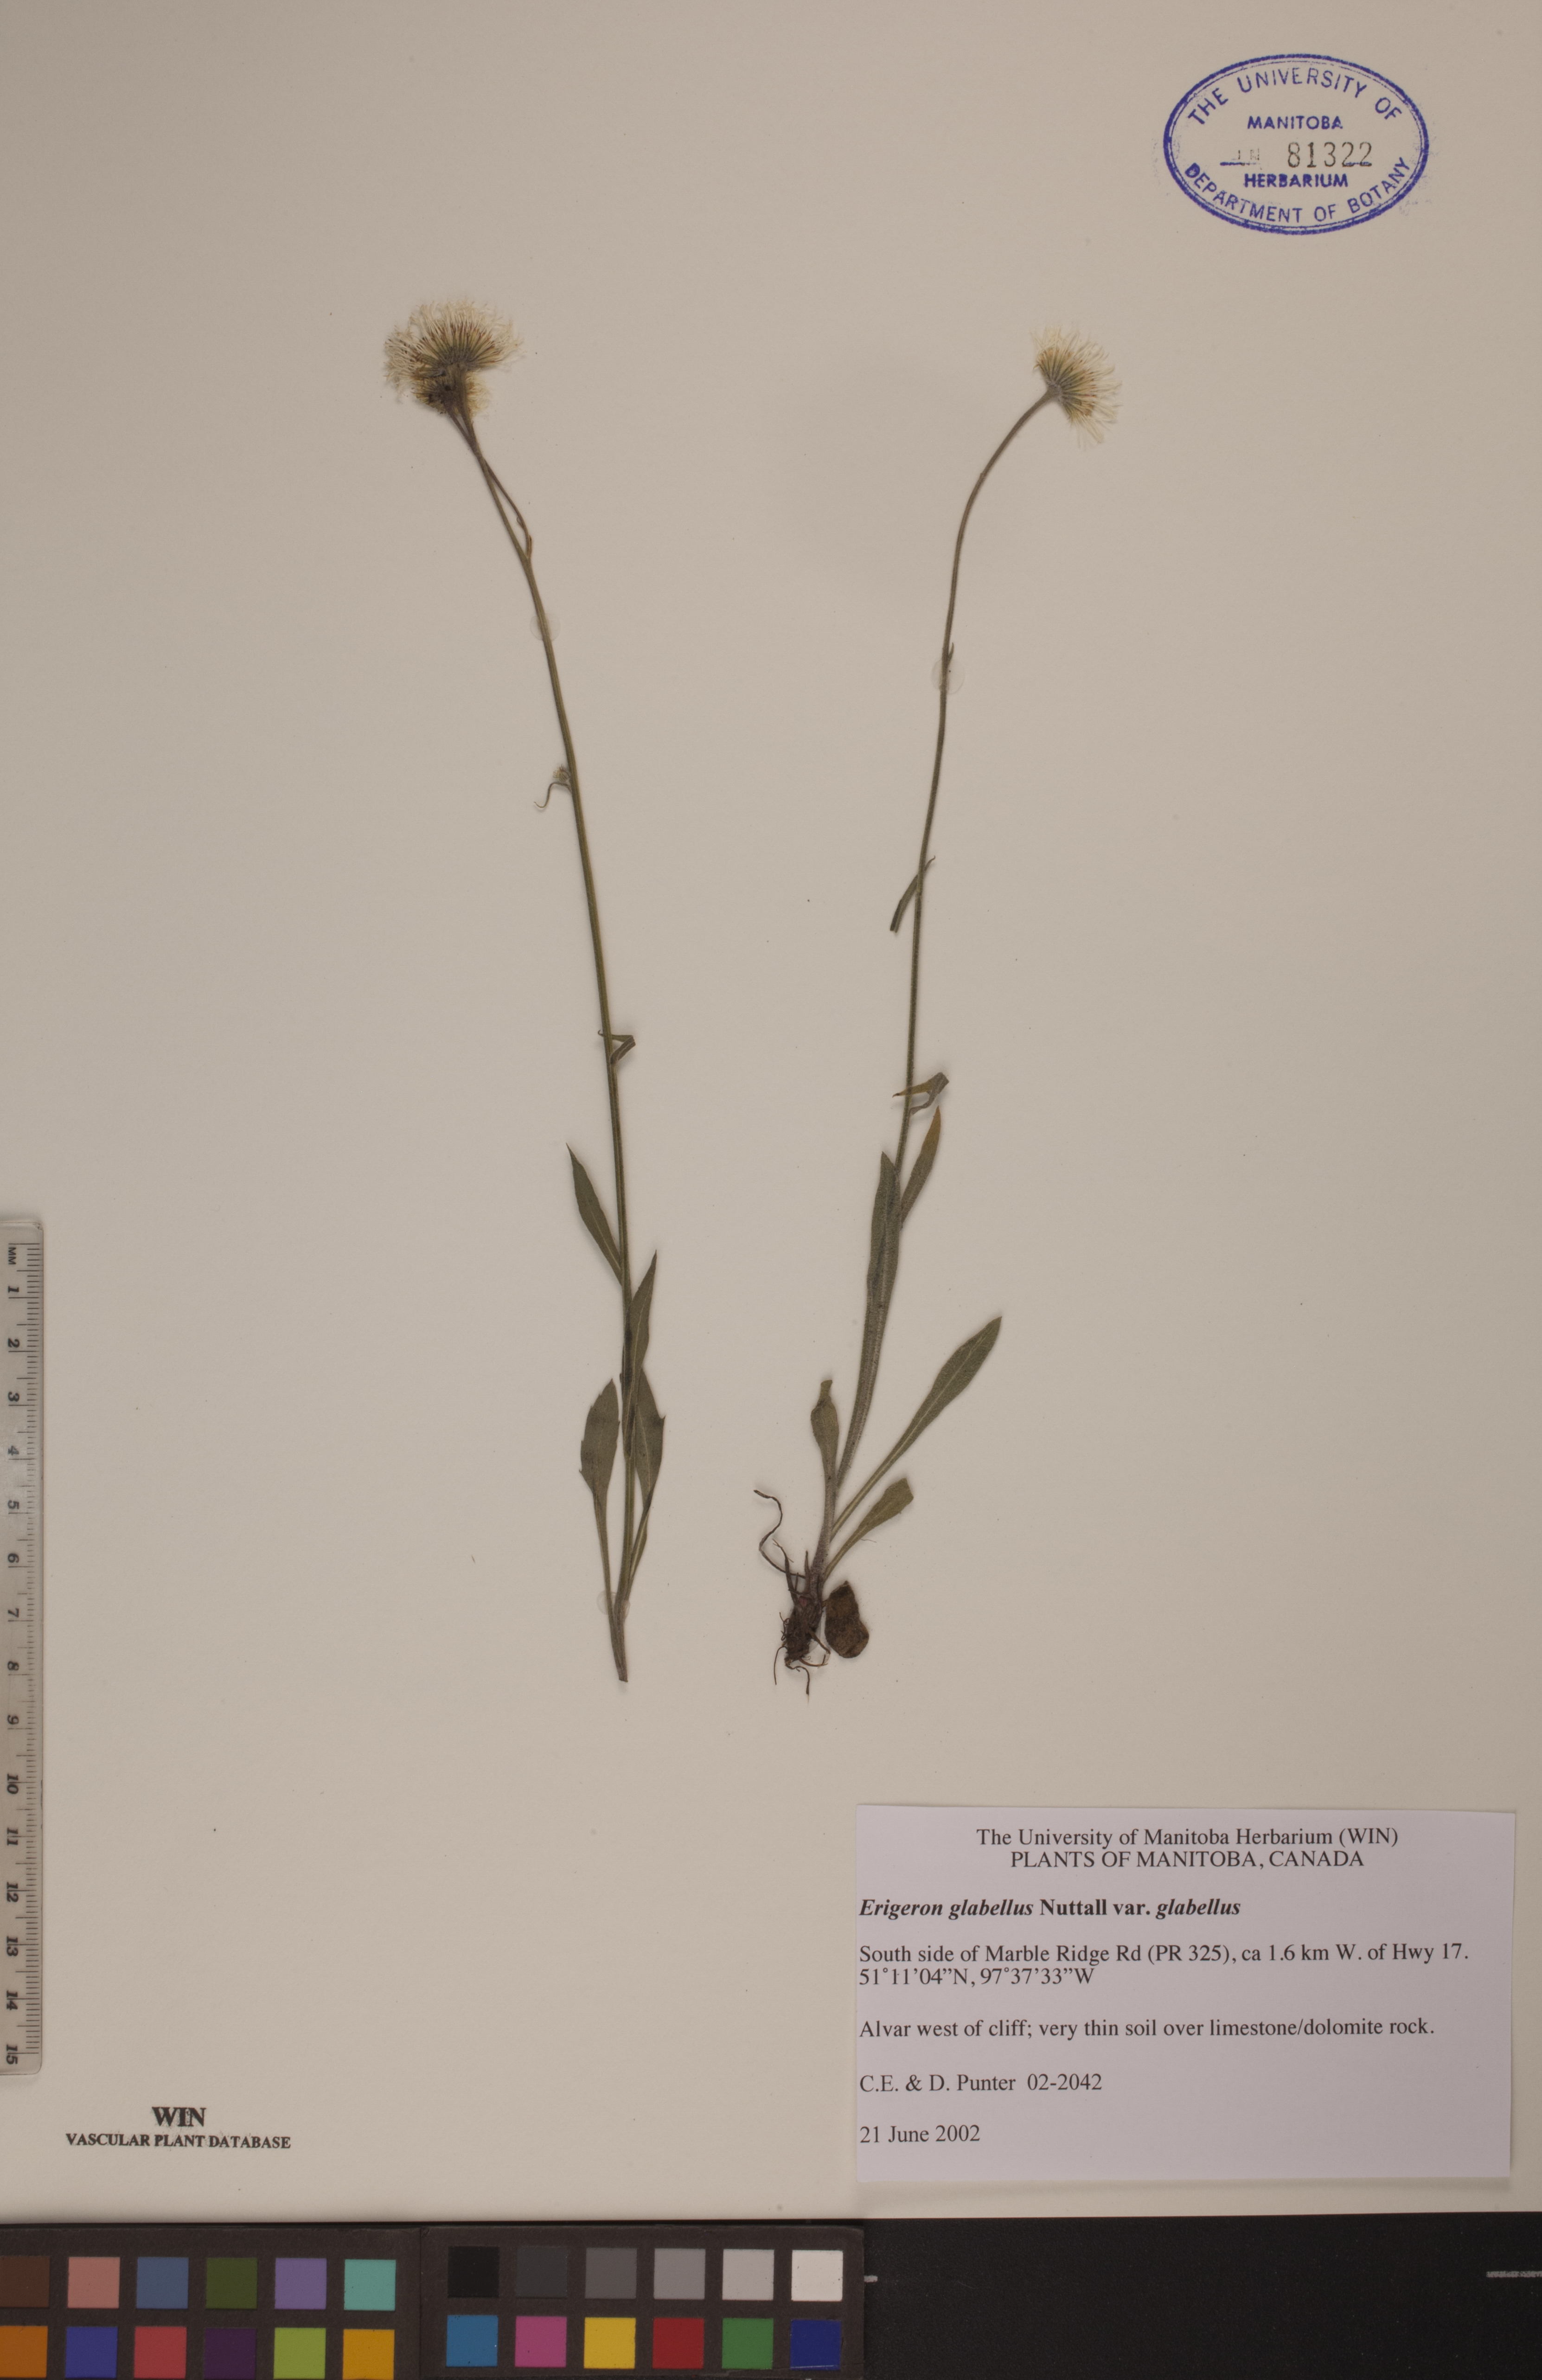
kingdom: Plantae
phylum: Tracheophyta
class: Magnoliopsida
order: Asterales
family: Asteraceae
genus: Erigeron
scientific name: Erigeron glabellus
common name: Smooth fleabane
